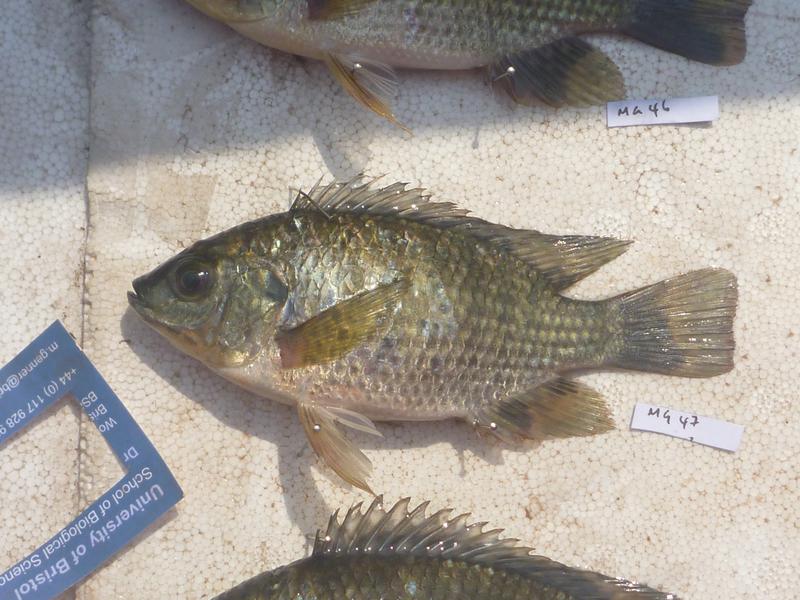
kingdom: Animalia
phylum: Chordata
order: Perciformes
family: Cichlidae
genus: Oreochromis
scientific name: Oreochromis leucostictus
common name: Blue spotted tilapia
